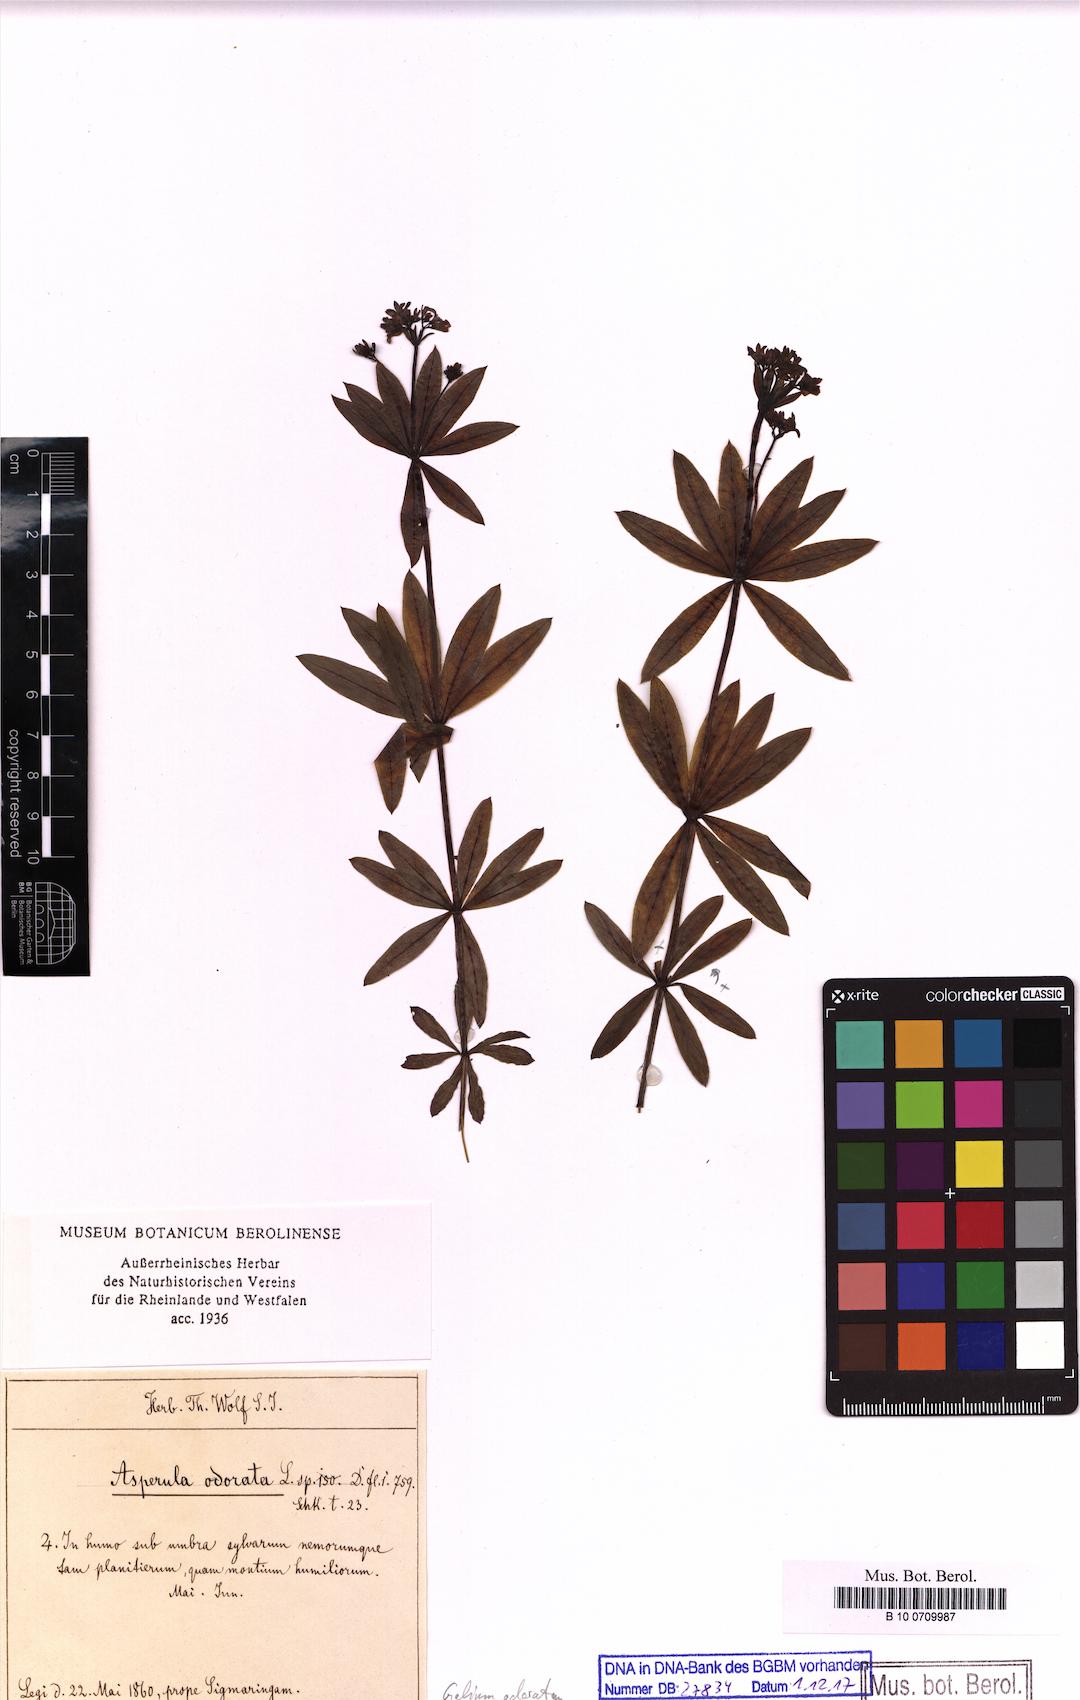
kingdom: Plantae
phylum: Tracheophyta
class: Magnoliopsida
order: Gentianales
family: Rubiaceae
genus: Galium
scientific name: Galium odoratum
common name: Sweet woodruff
